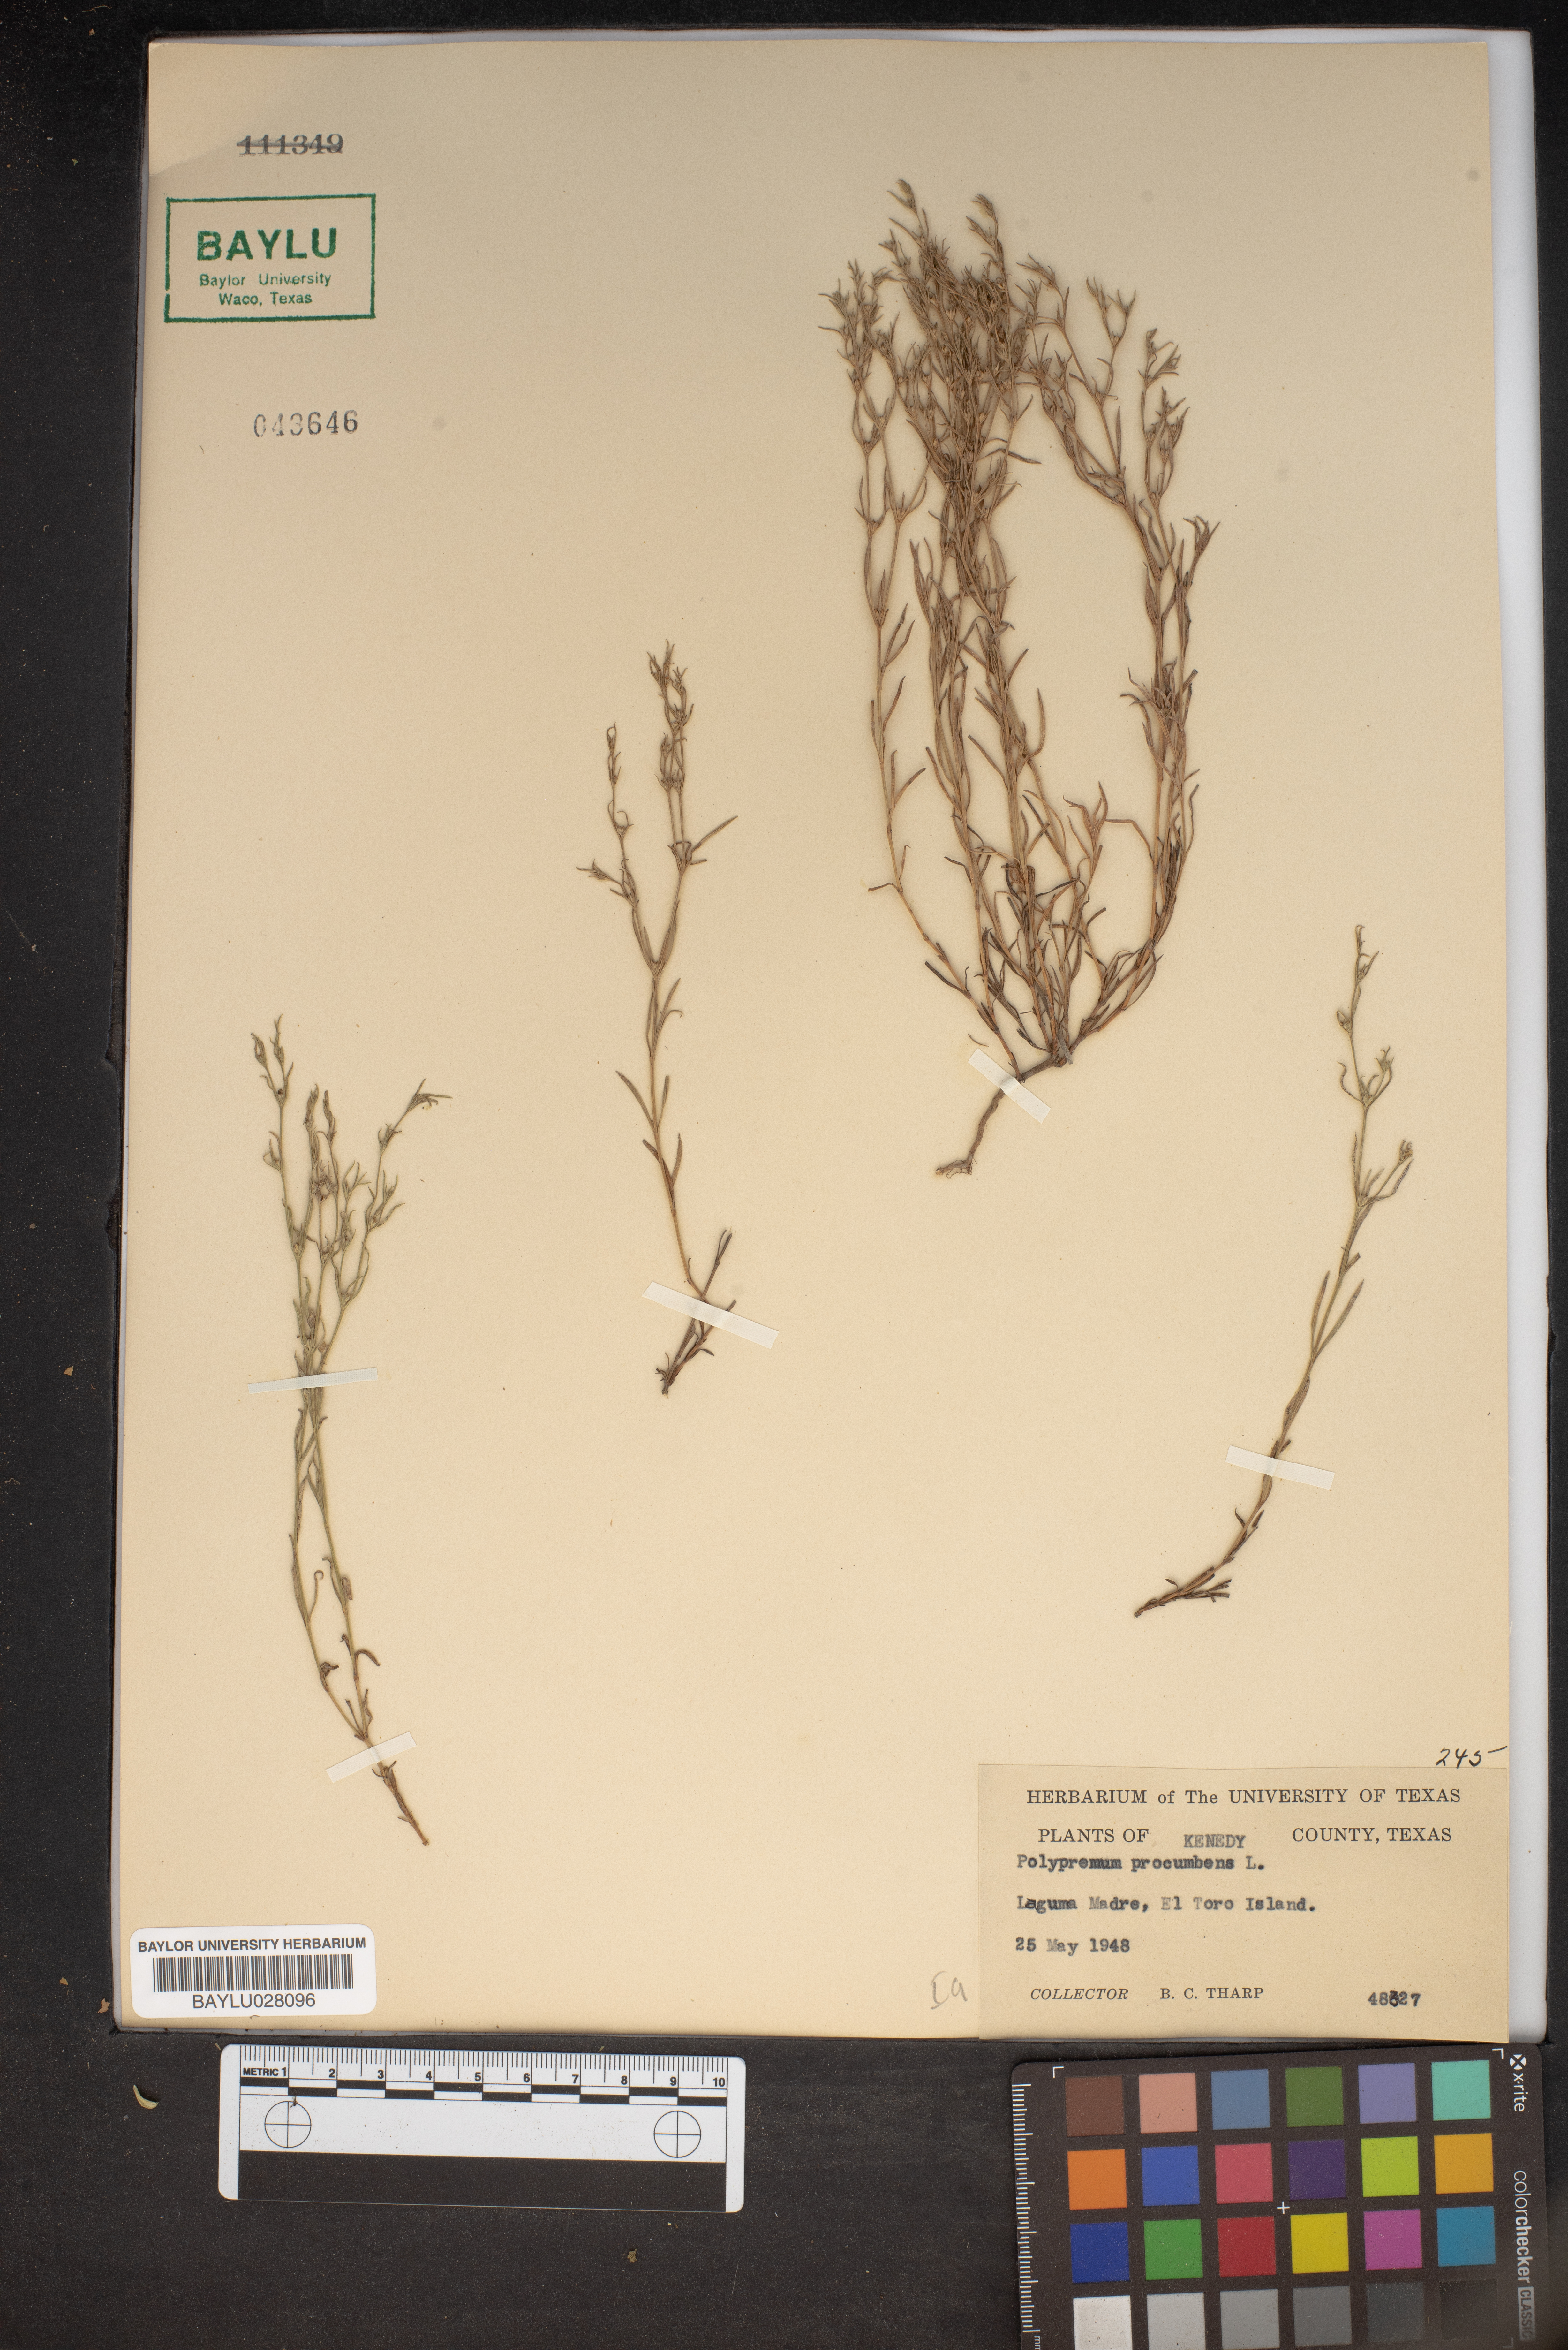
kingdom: Plantae
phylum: Tracheophyta
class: Magnoliopsida
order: Lamiales
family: Tetrachondraceae
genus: Polypremum
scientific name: Polypremum procumbens
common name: Juniper-leaf
